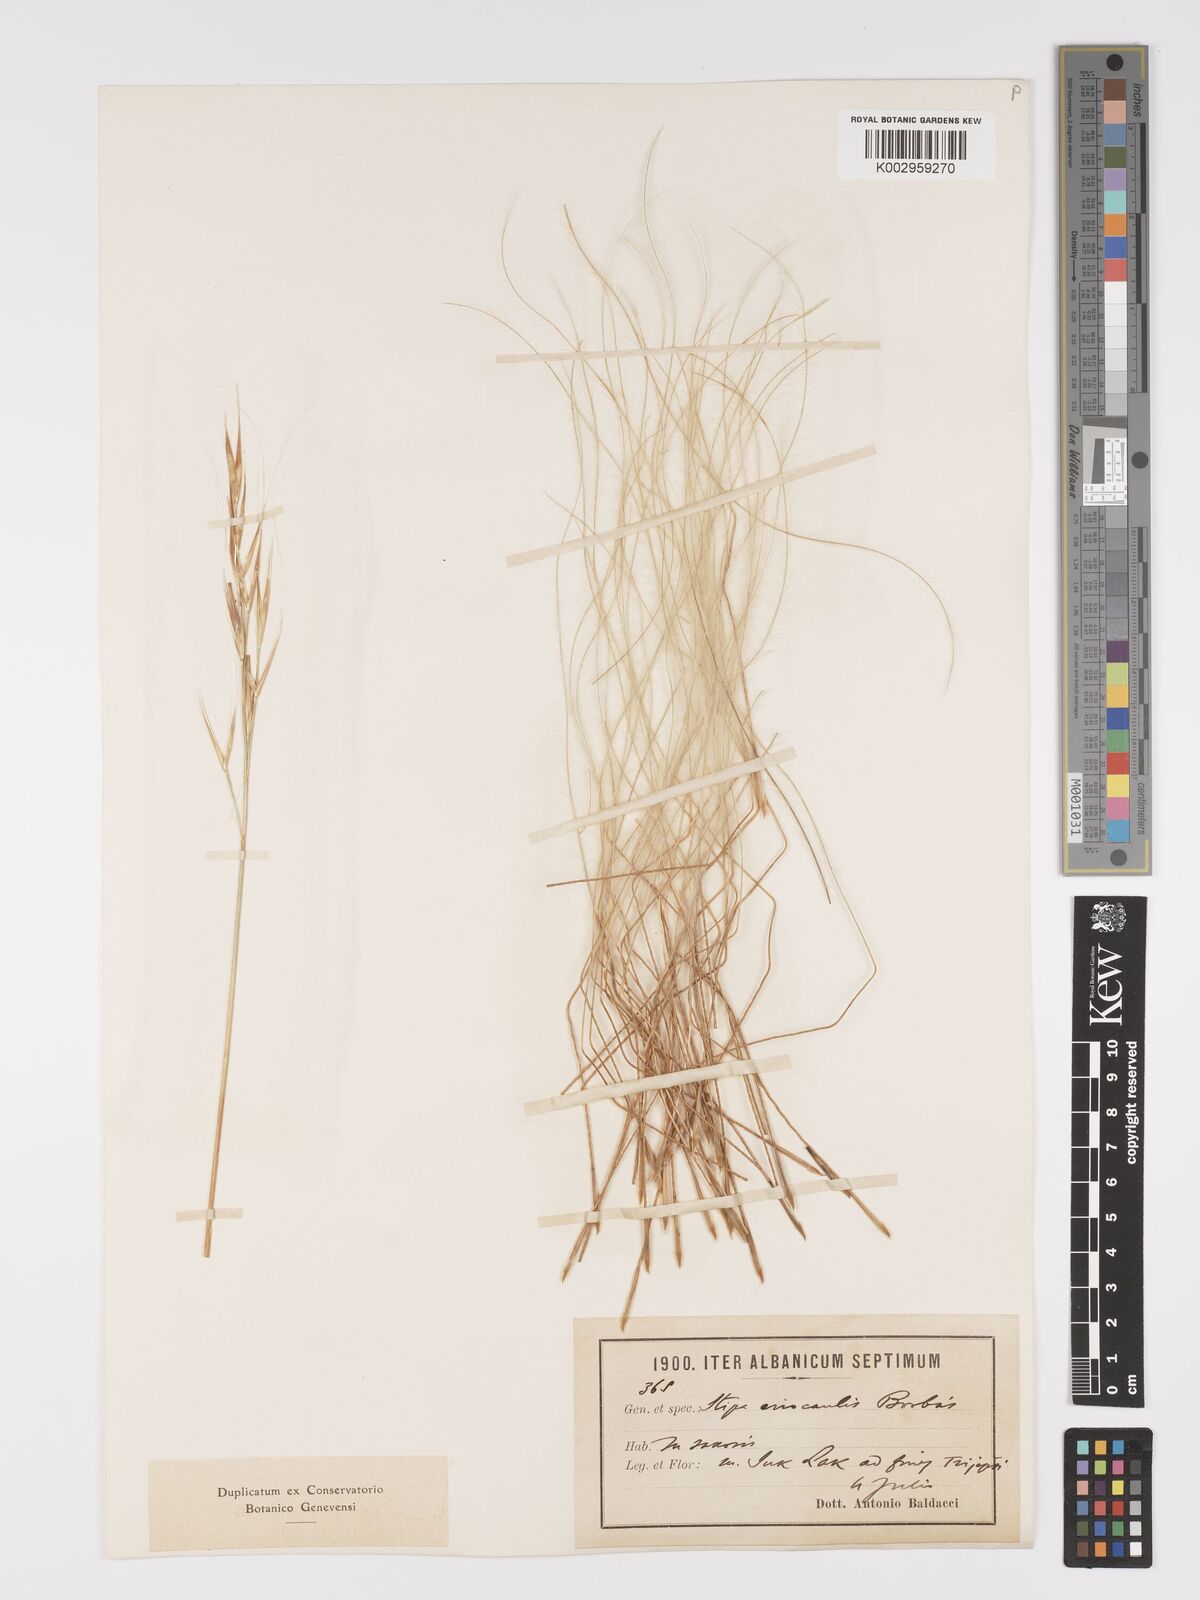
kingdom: Plantae
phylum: Tracheophyta
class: Liliopsida
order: Poales
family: Poaceae
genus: Stipa
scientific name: Stipa pulcherrima
